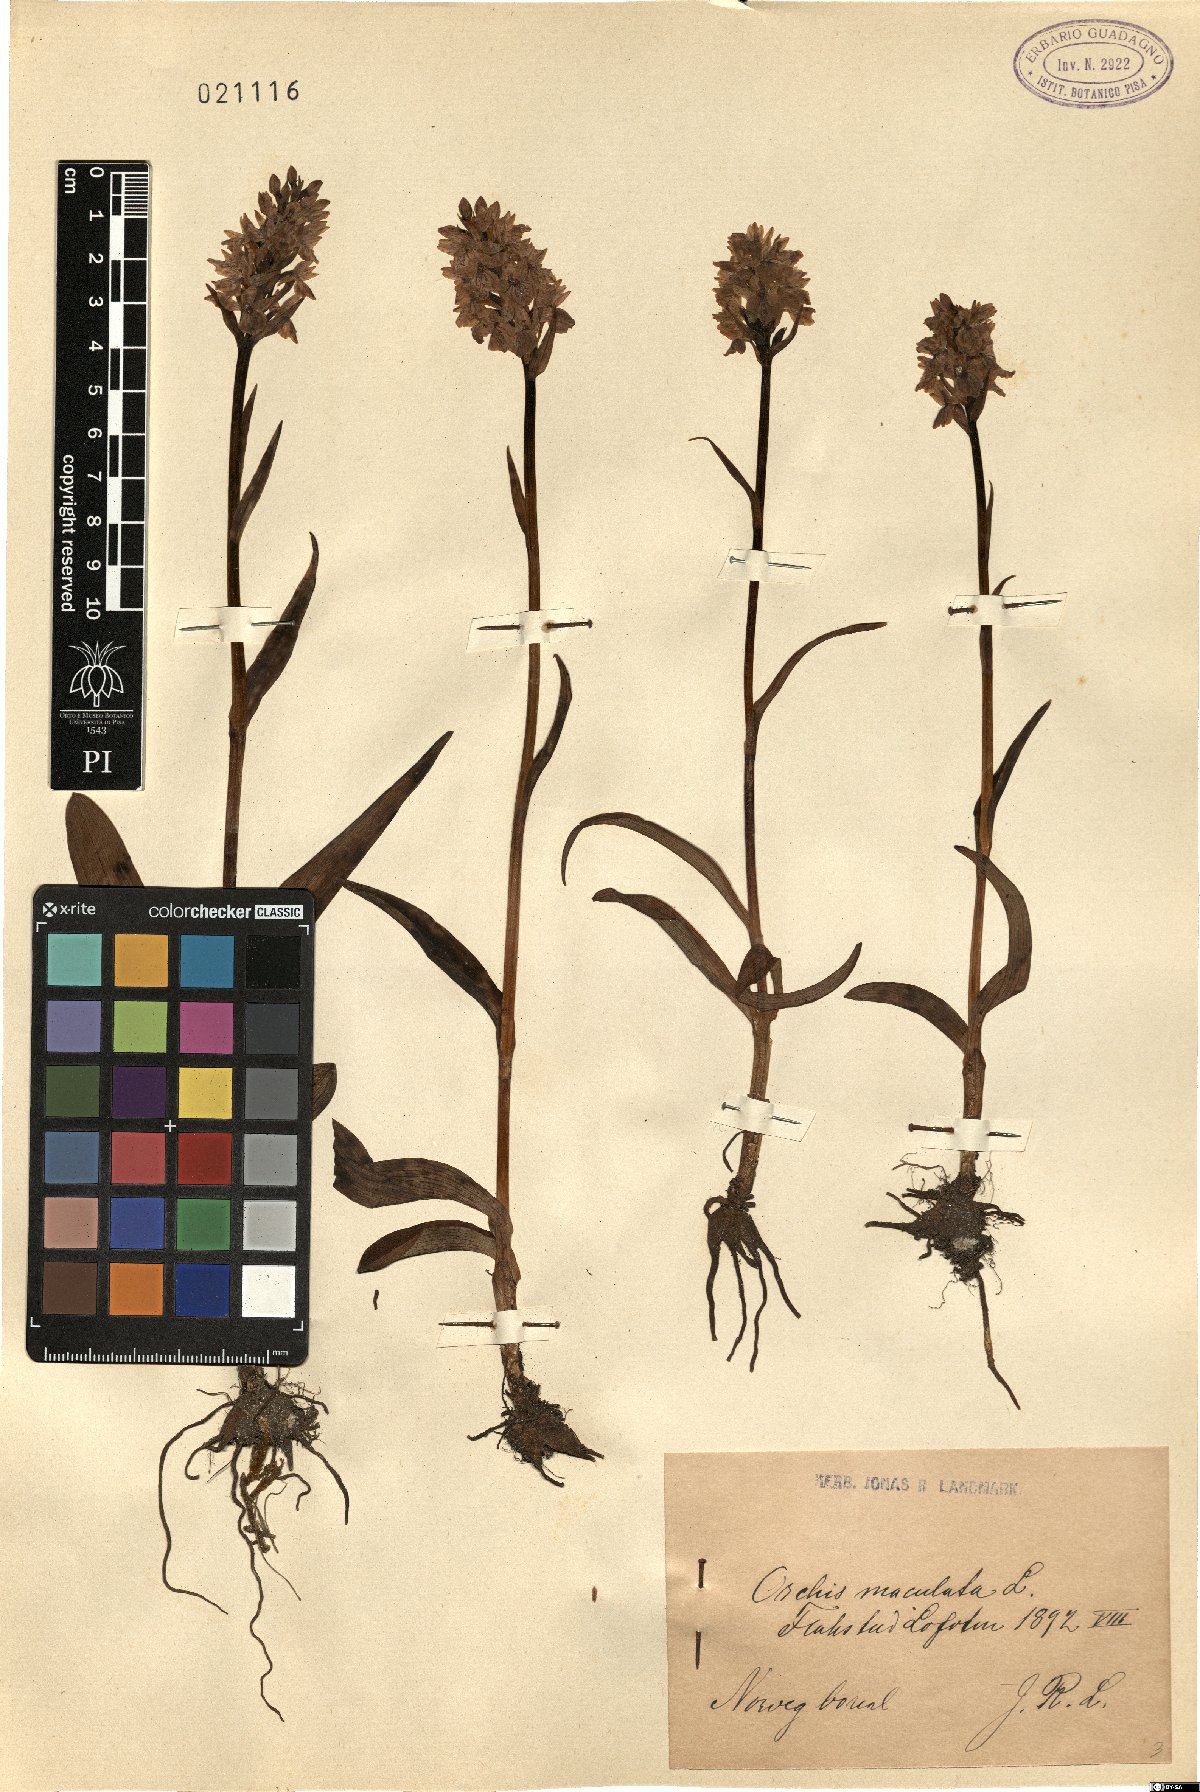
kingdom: Plantae
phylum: Tracheophyta
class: Liliopsida
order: Asparagales
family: Orchidaceae
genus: Dactylorhiza
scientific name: Dactylorhiza maculata
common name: Heath spotted-orchid
